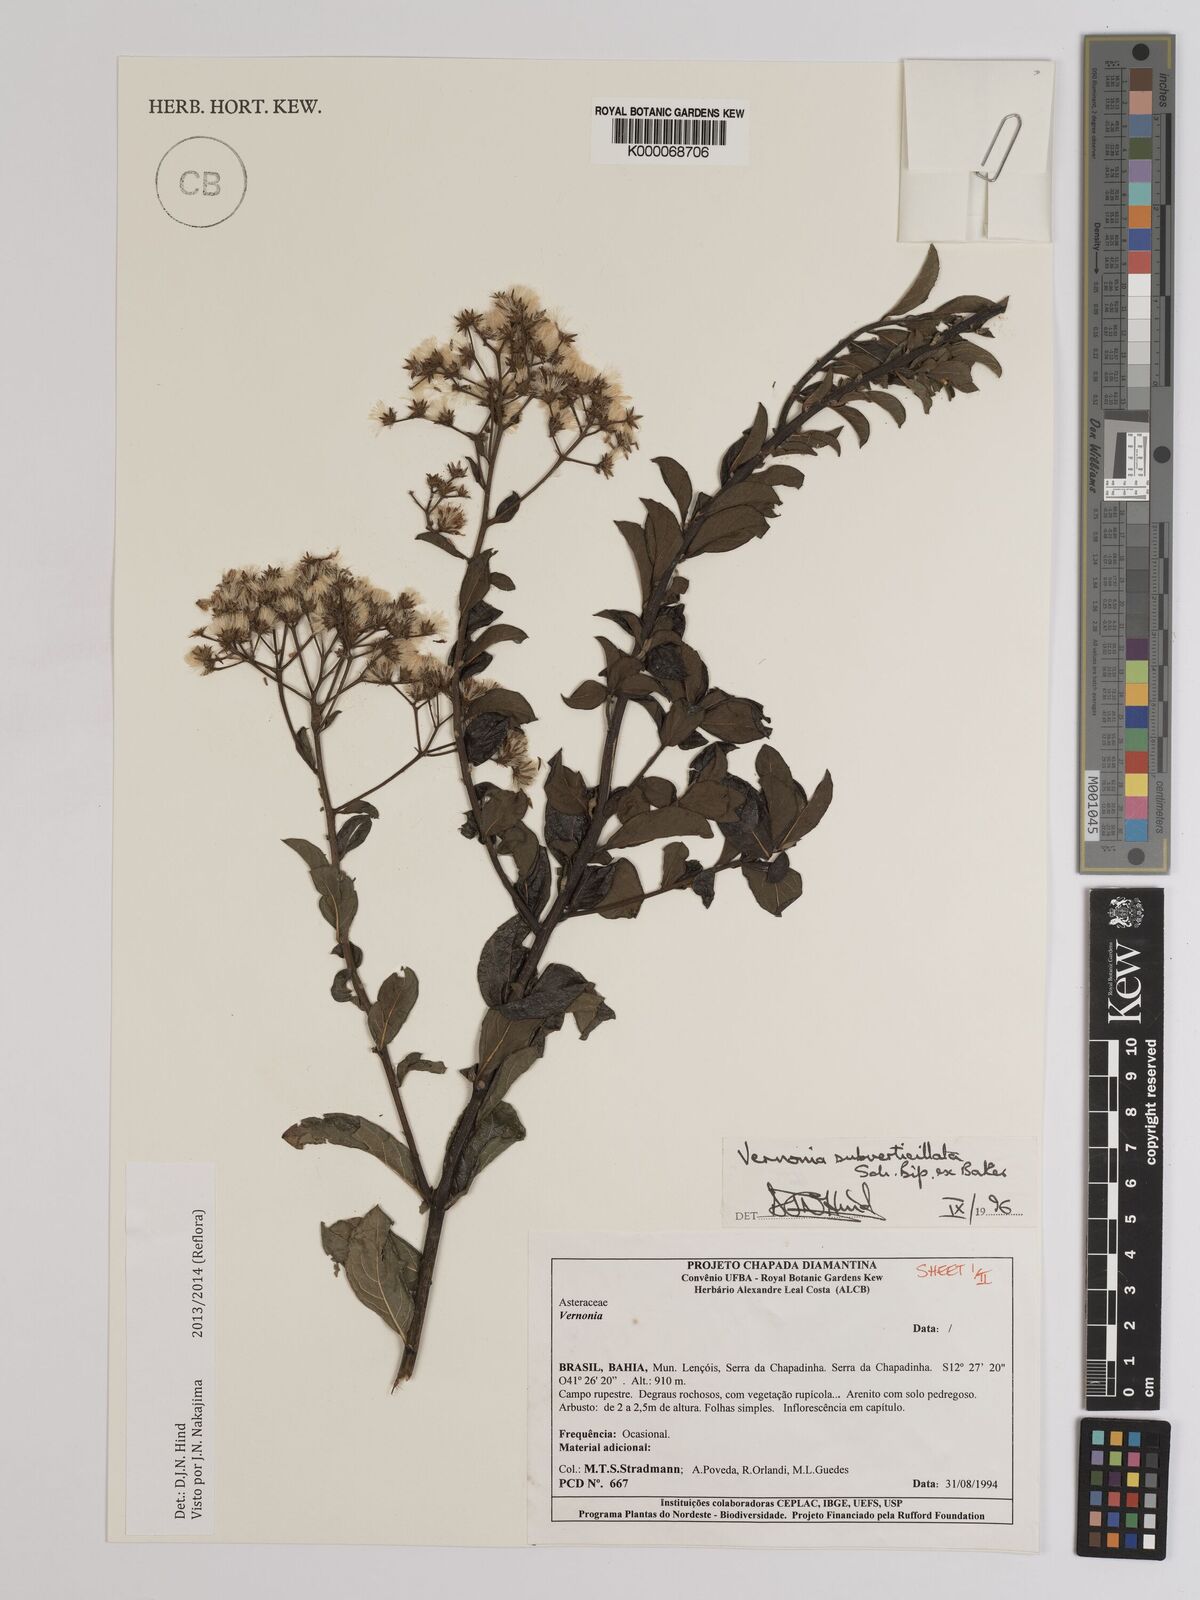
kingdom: Plantae
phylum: Tracheophyta
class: Magnoliopsida
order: Asterales
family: Asteraceae
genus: Vernonia
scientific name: Vernonia
